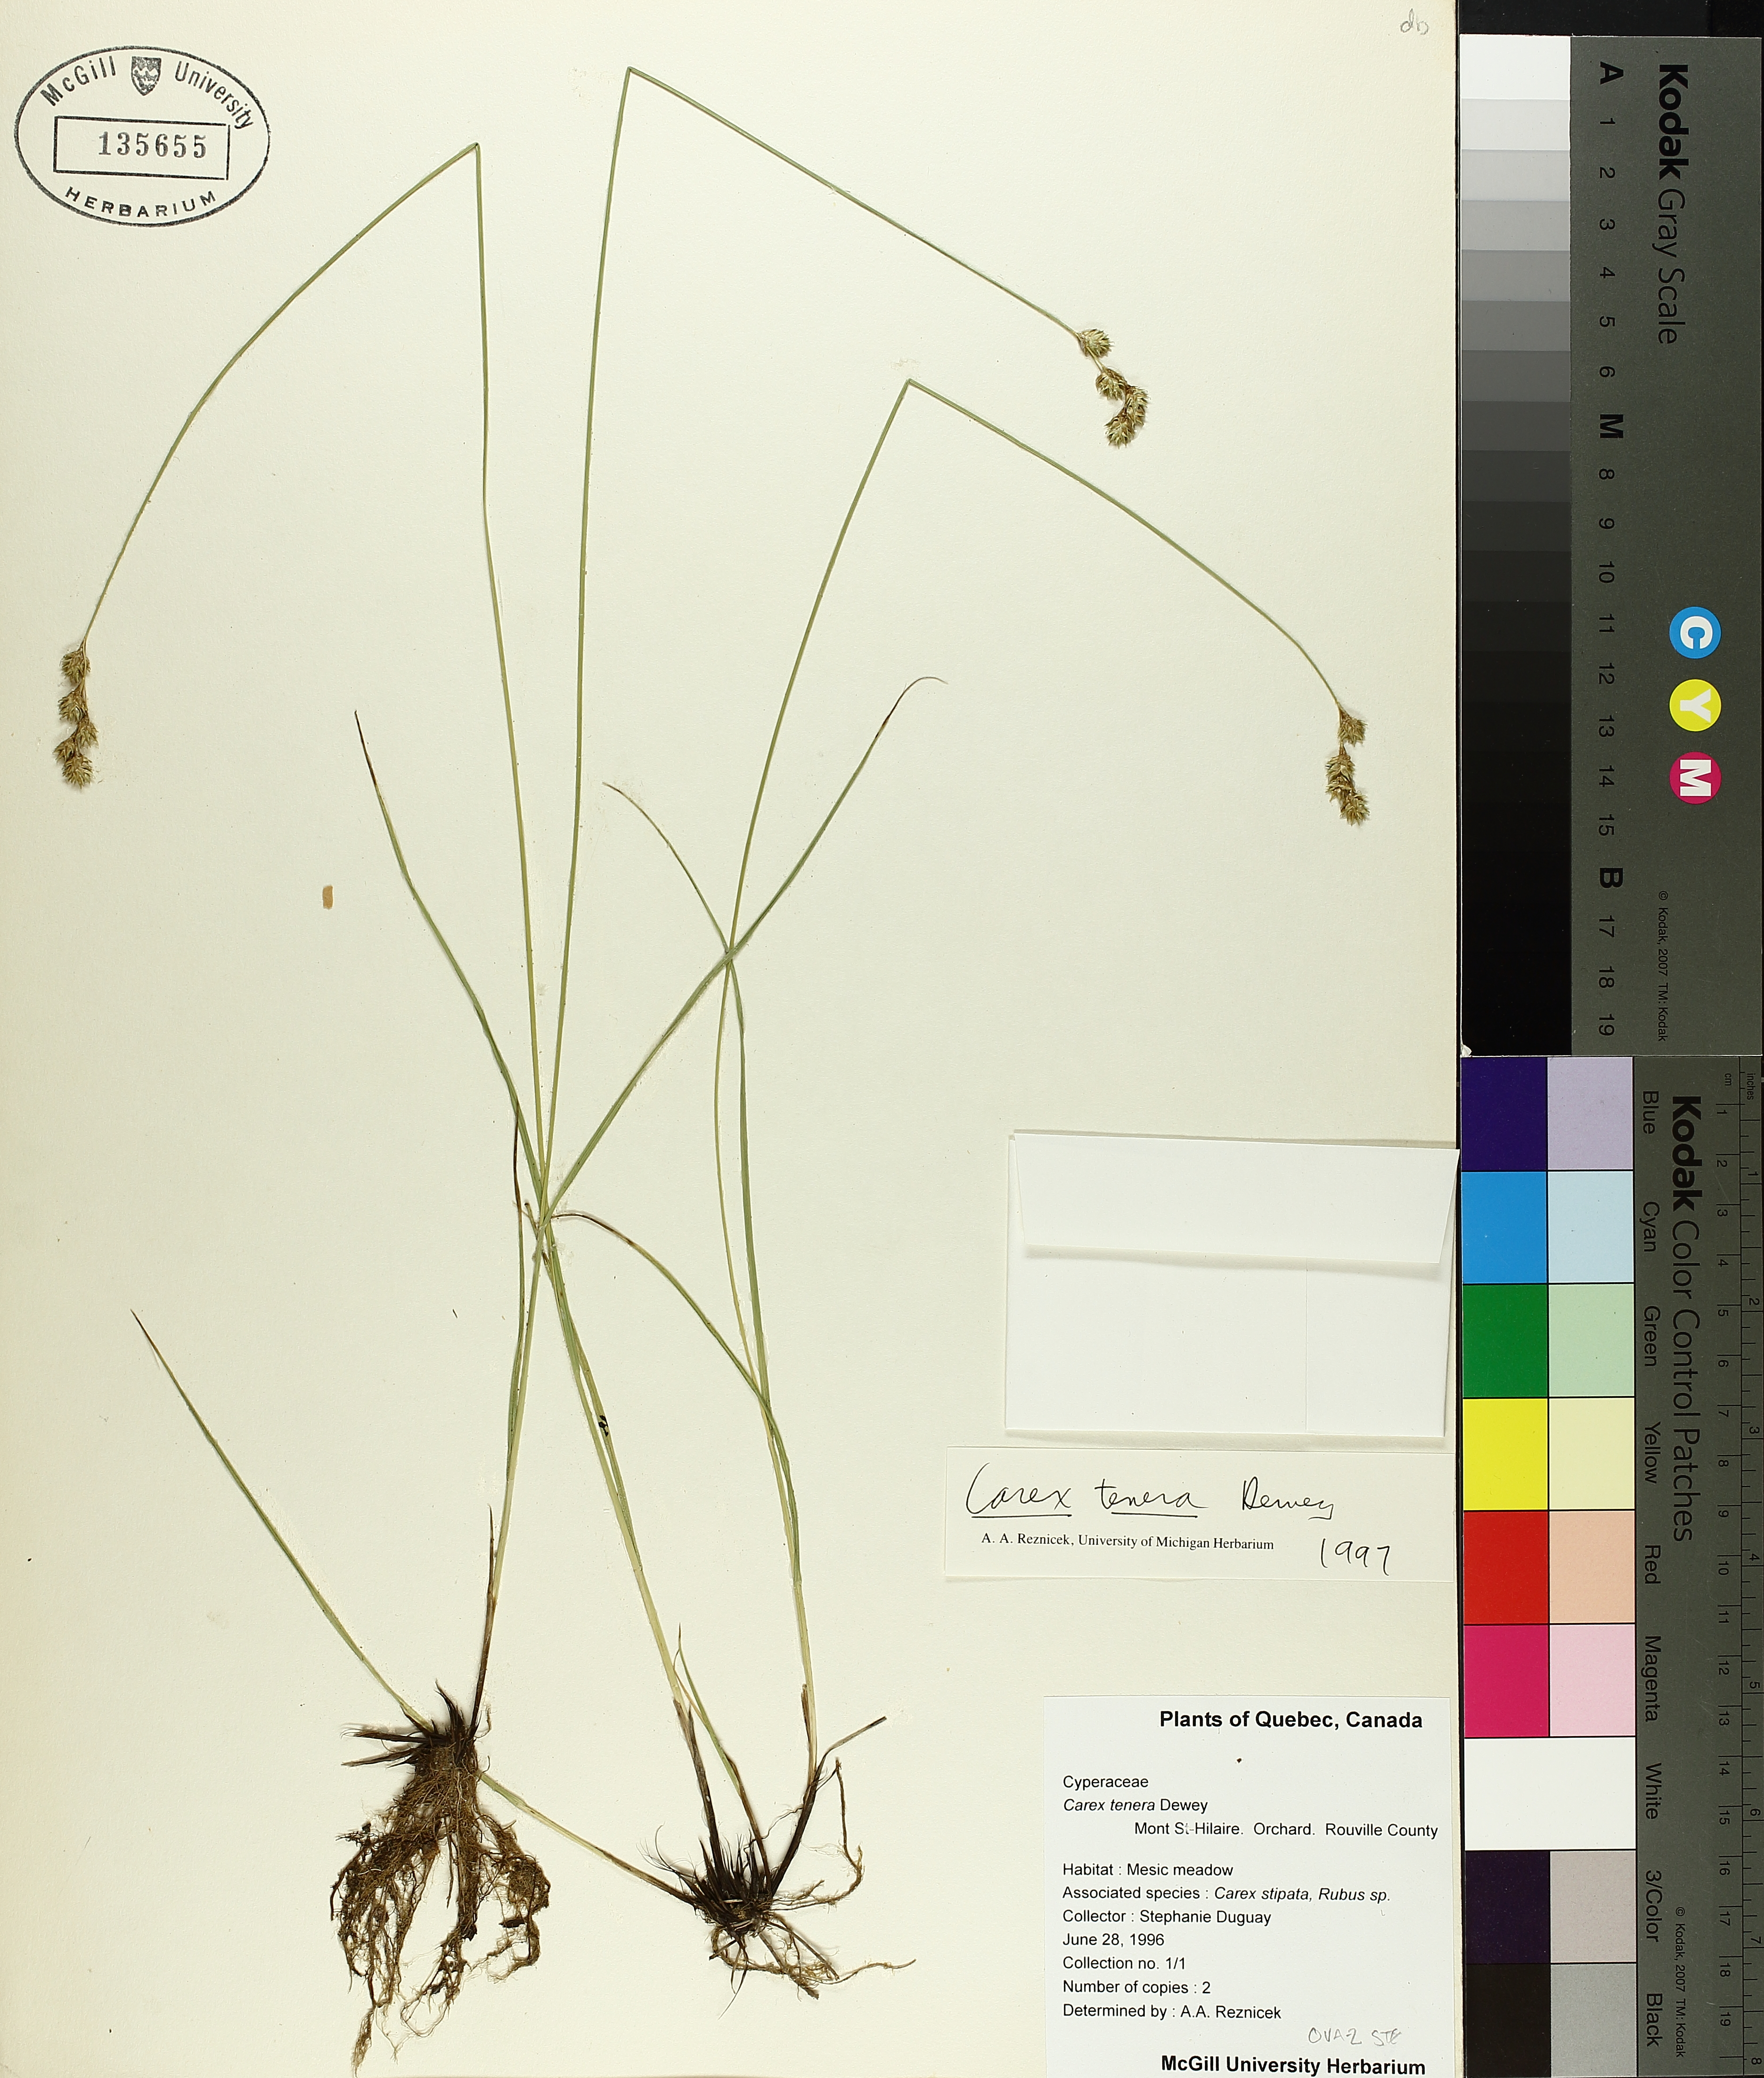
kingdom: Plantae
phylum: Tracheophyta
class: Liliopsida
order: Poales
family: Cyperaceae
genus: Carex
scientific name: Carex tenera
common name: Broad-fruited sedge
